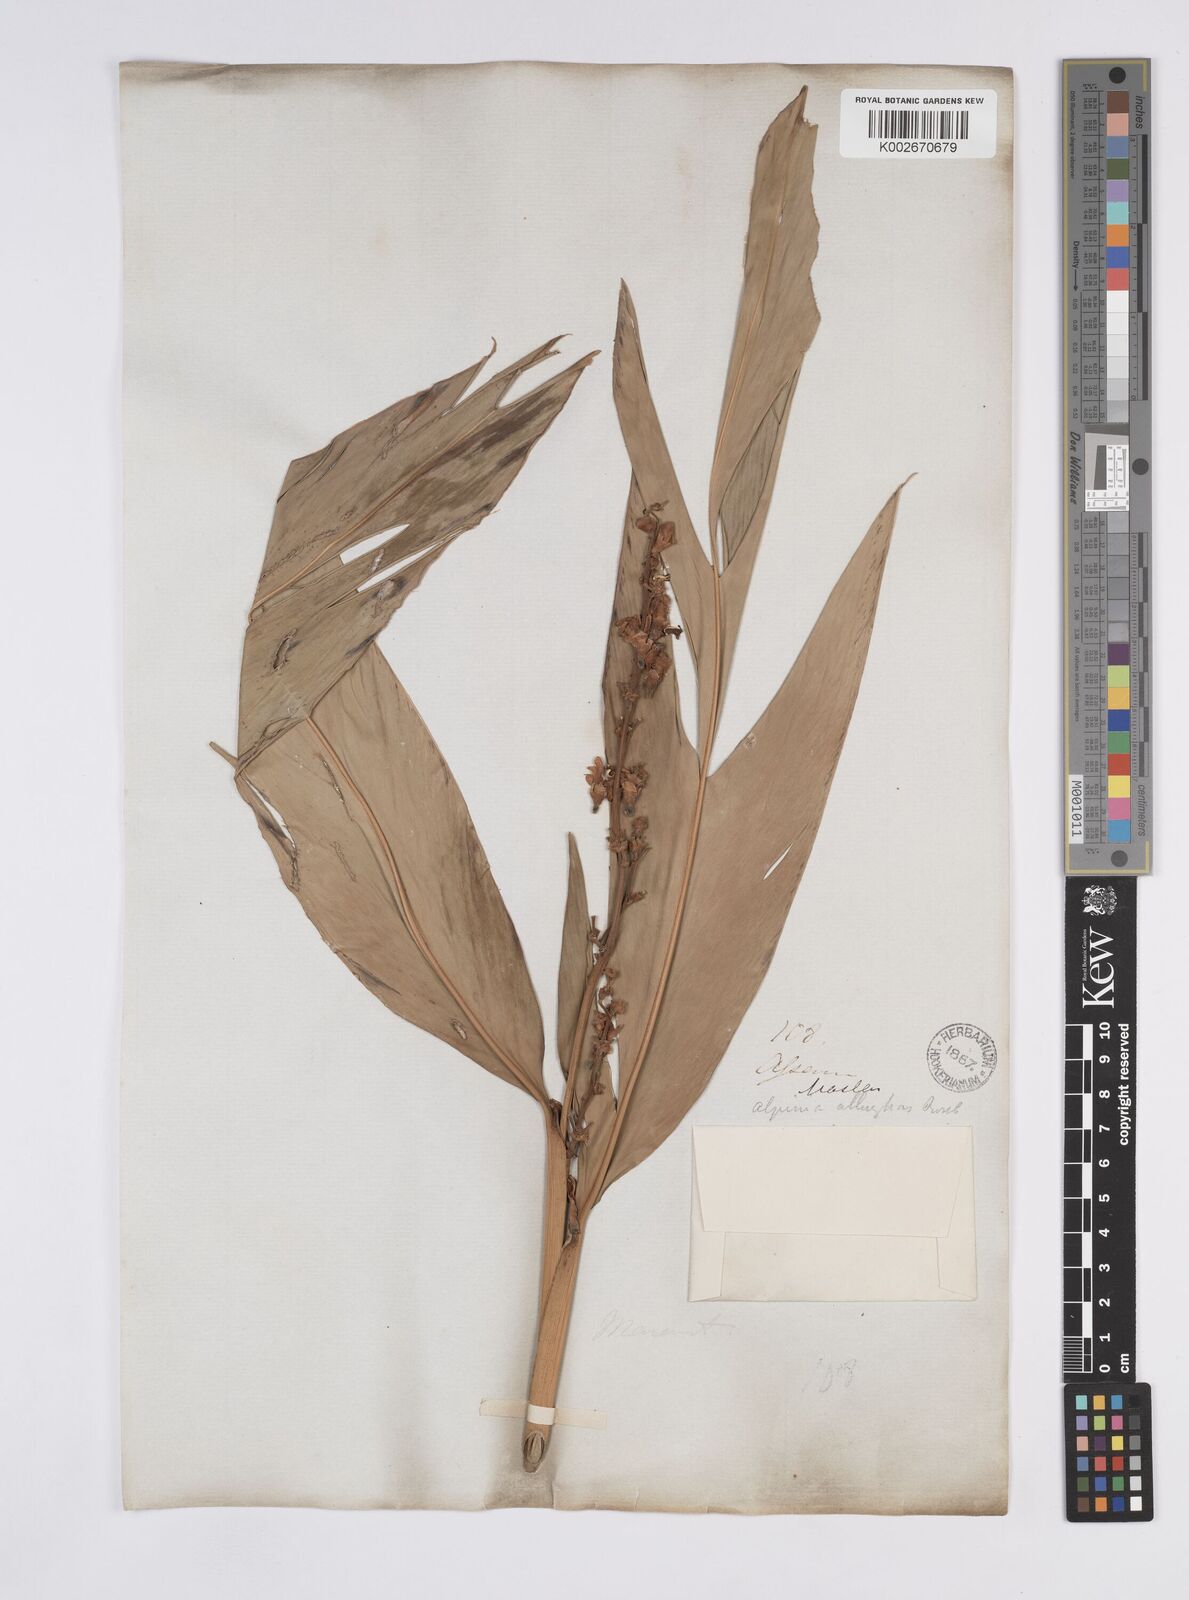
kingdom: Plantae
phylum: Tracheophyta
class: Liliopsida
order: Zingiberales
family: Zingiberaceae
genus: Alpinia
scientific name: Alpinia nigra
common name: Black fruited galanga
